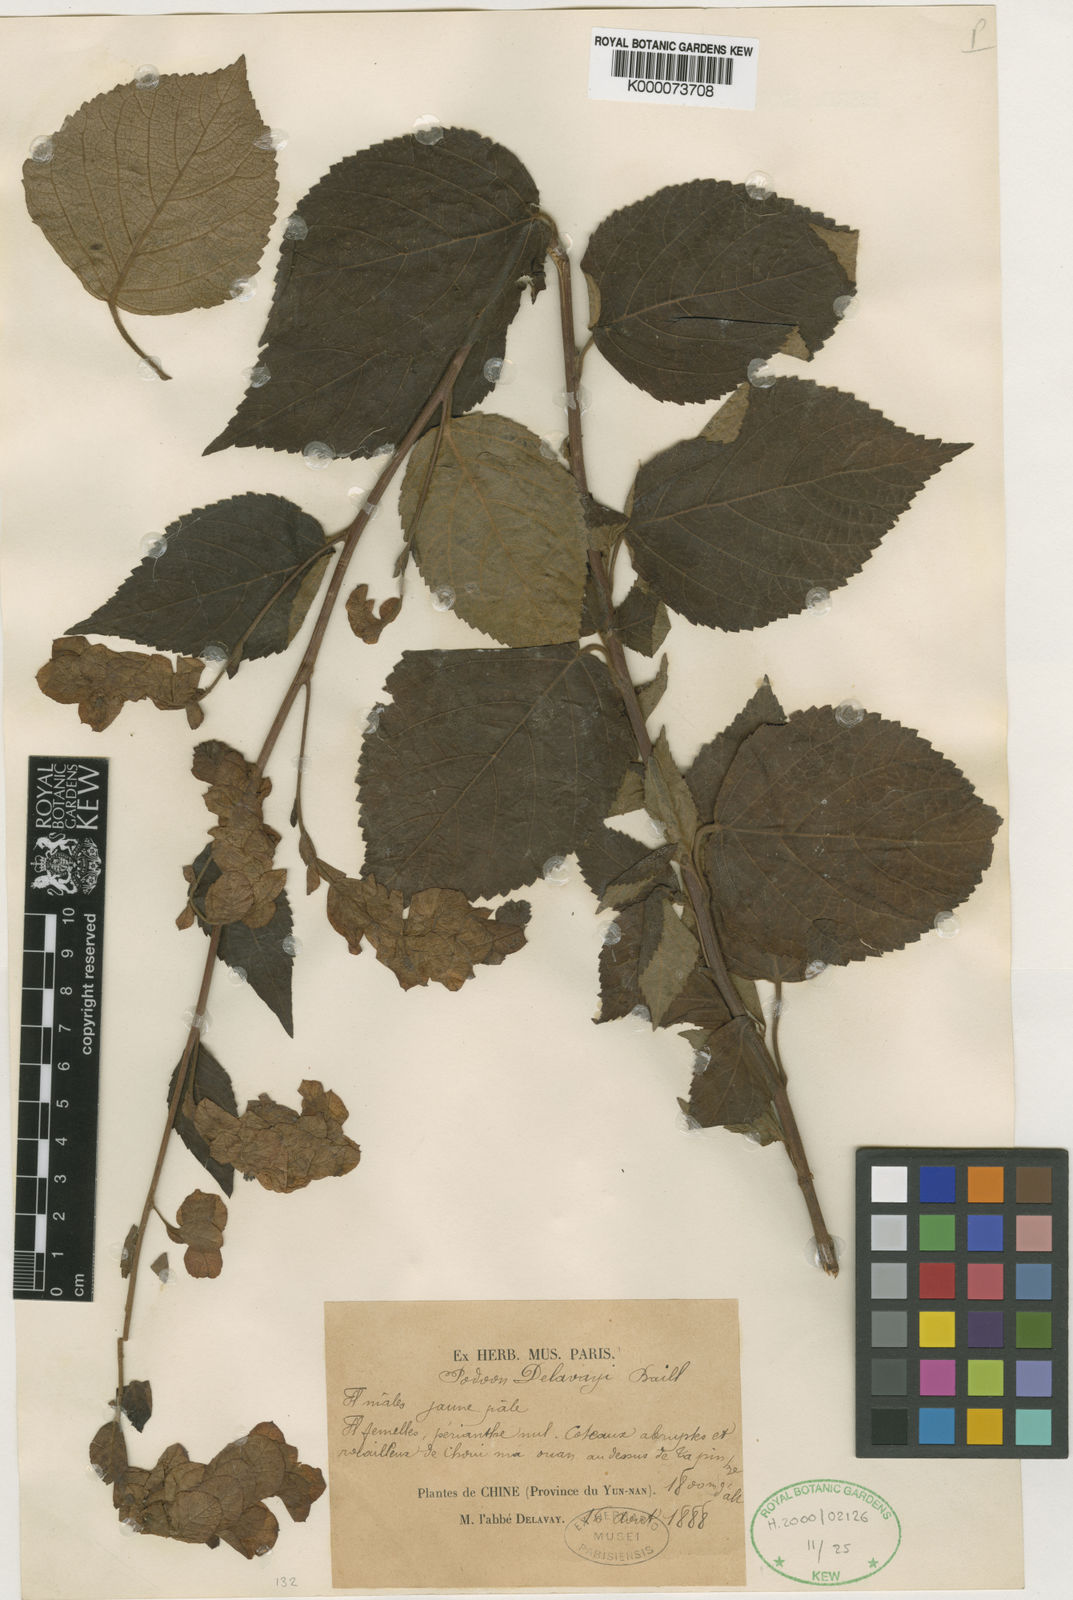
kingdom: Plantae
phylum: Tracheophyta
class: Magnoliopsida
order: Sapindales
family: Anacardiaceae
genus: Dobinea
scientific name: Dobinea delavayi
